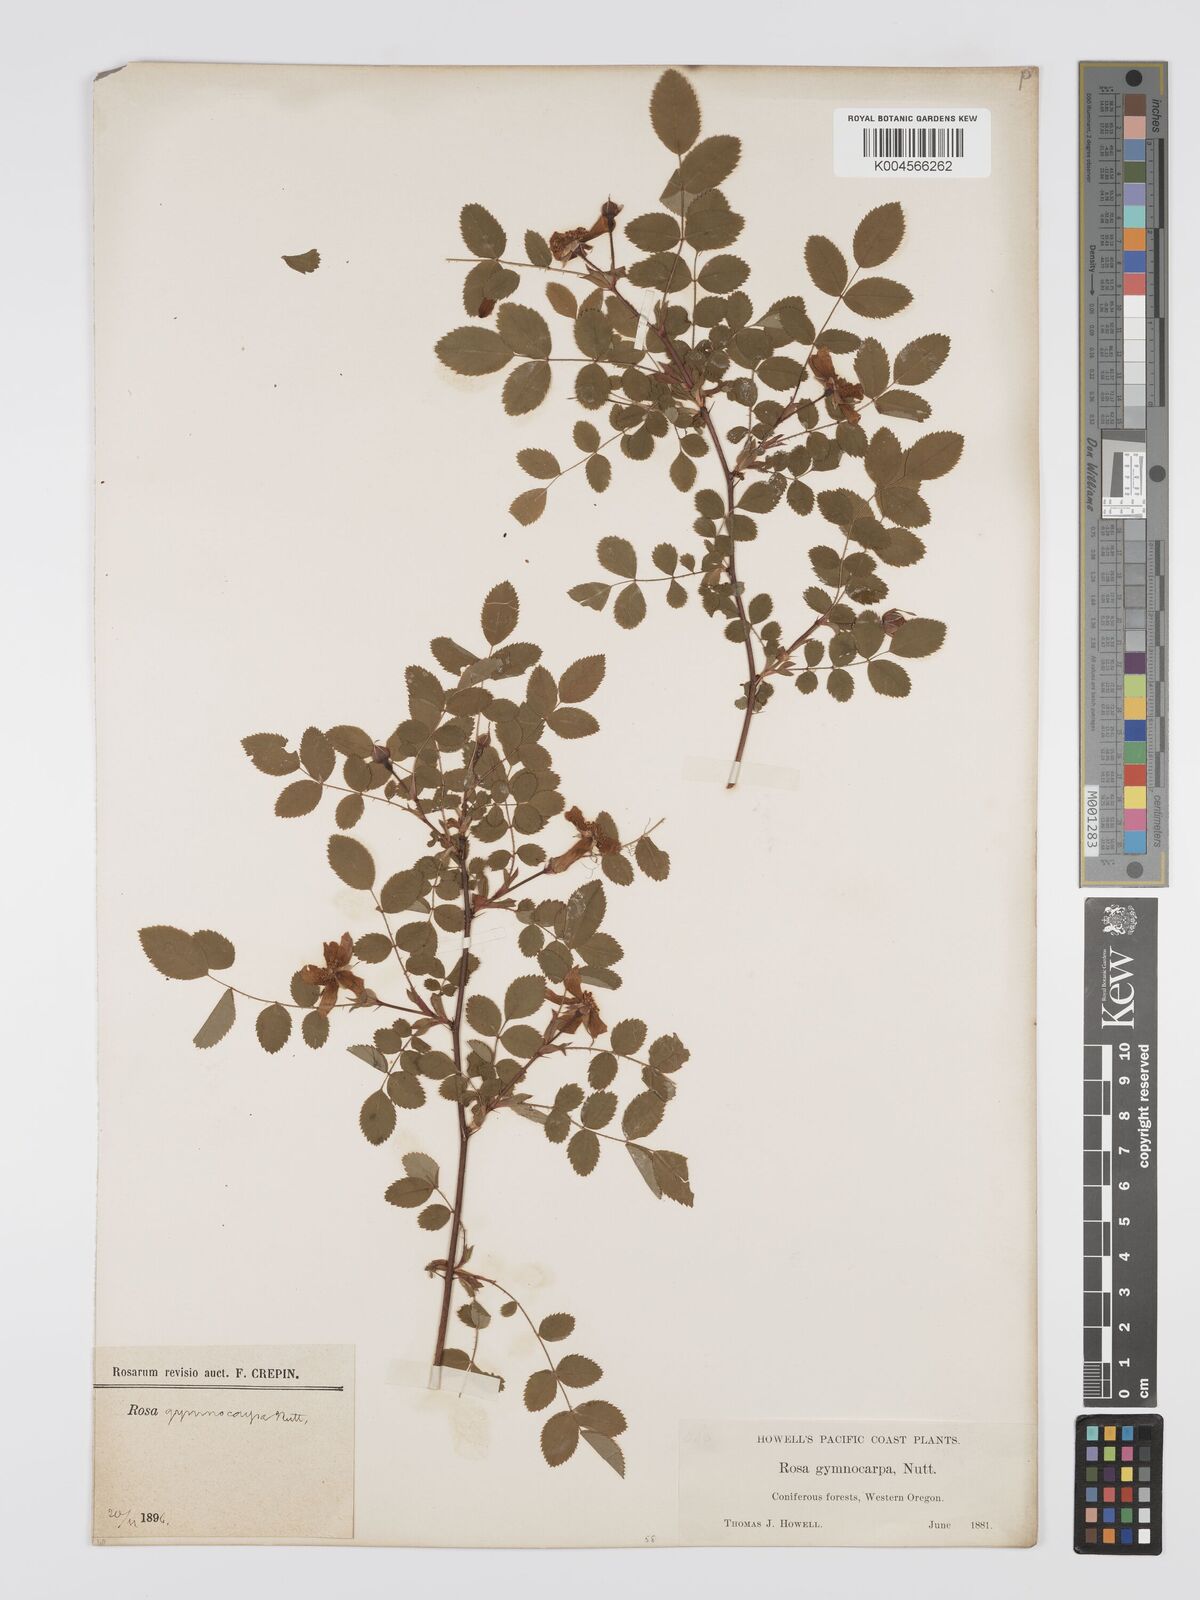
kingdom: Plantae
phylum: Tracheophyta
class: Magnoliopsida
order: Rosales
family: Rosaceae
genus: Rosa
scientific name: Rosa gymnocarpa
